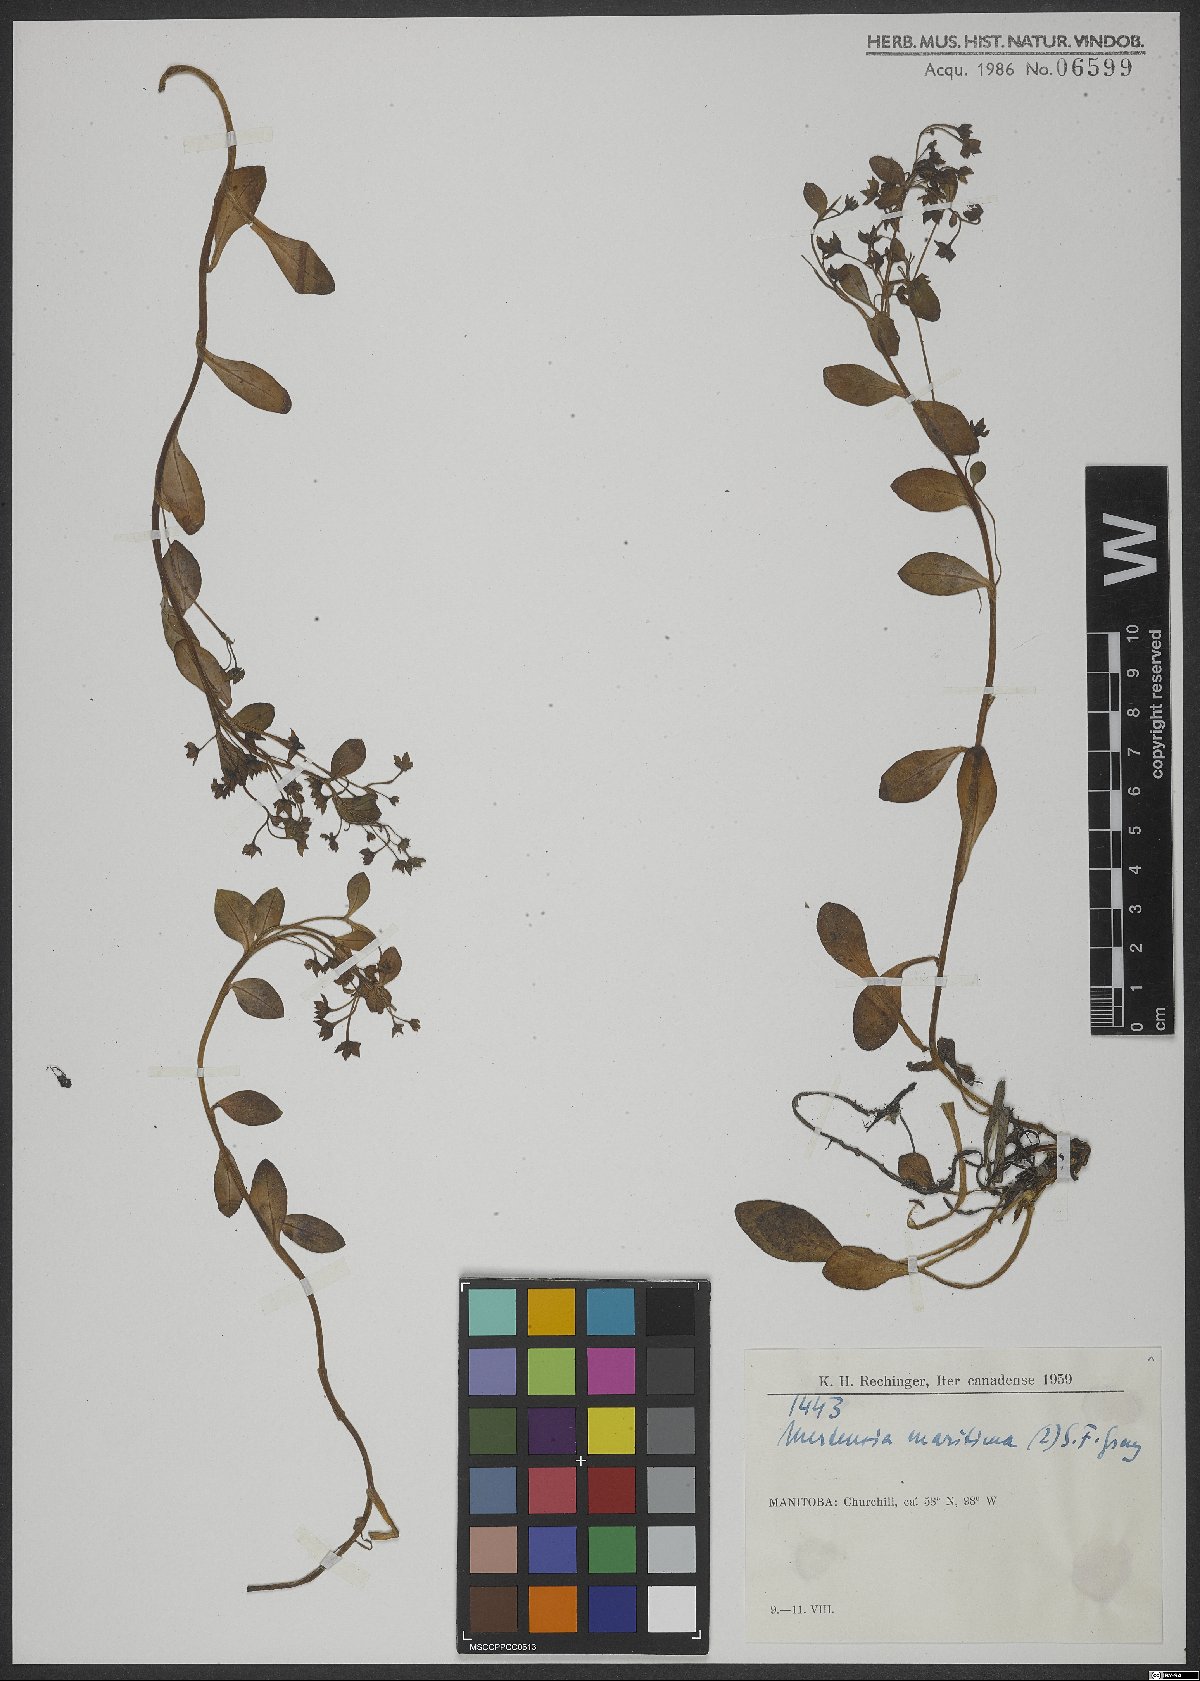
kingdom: Plantae
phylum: Tracheophyta
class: Magnoliopsida
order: Boraginales
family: Boraginaceae
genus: Mertensia
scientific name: Mertensia maritima
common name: Oysterplant
